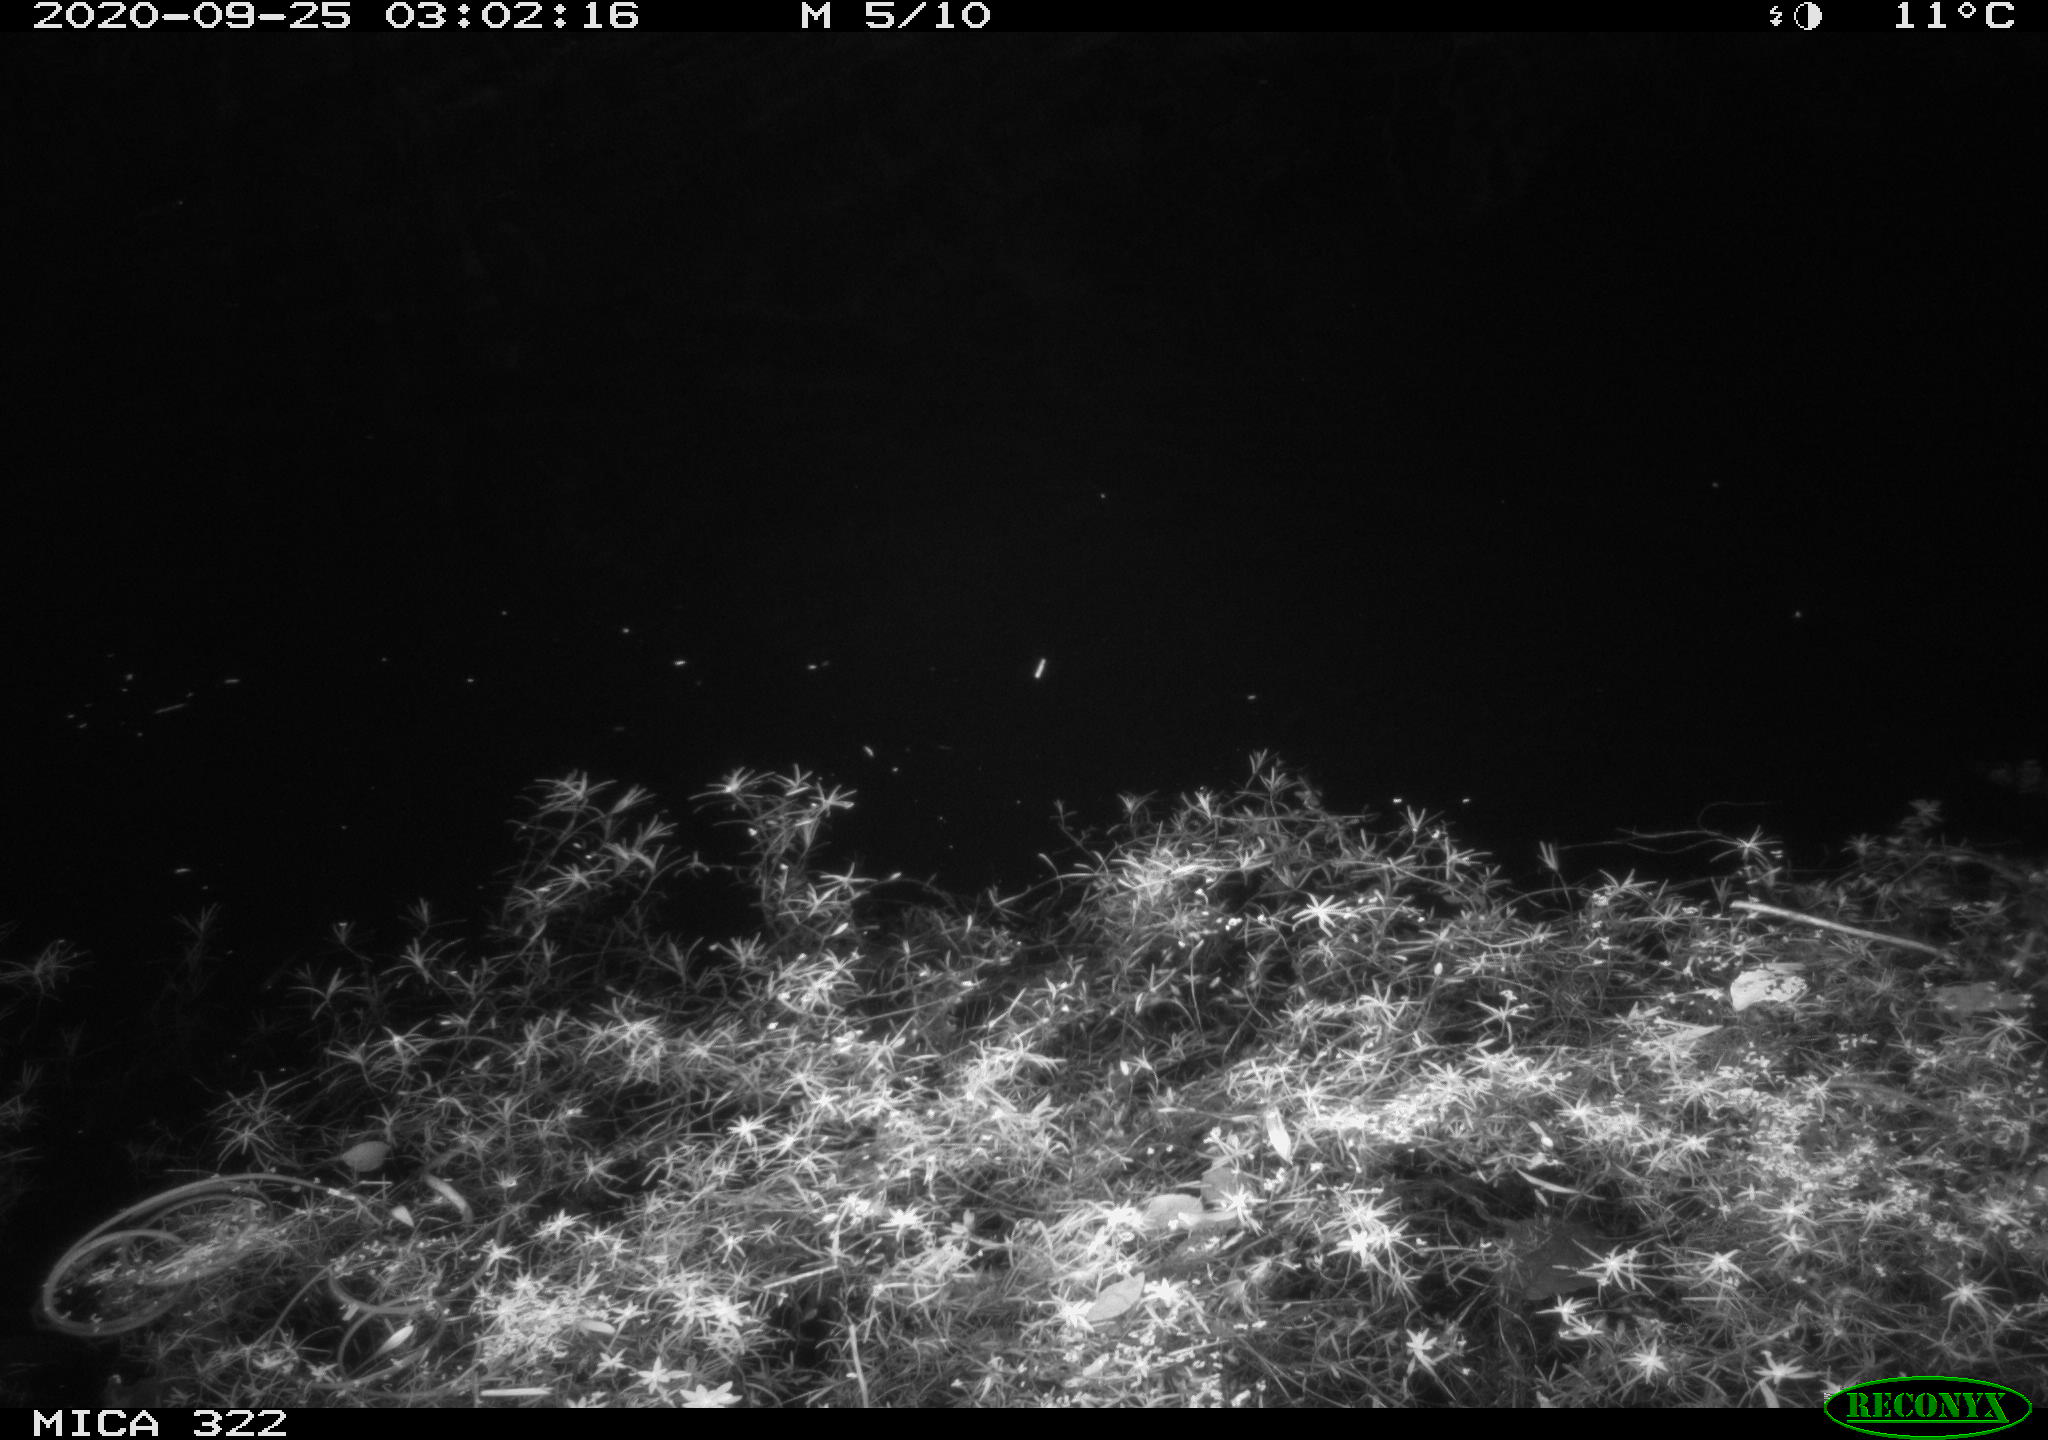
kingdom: Animalia
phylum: Chordata
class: Mammalia
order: Rodentia
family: Muridae
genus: Rattus
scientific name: Rattus norvegicus
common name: Brown rat
